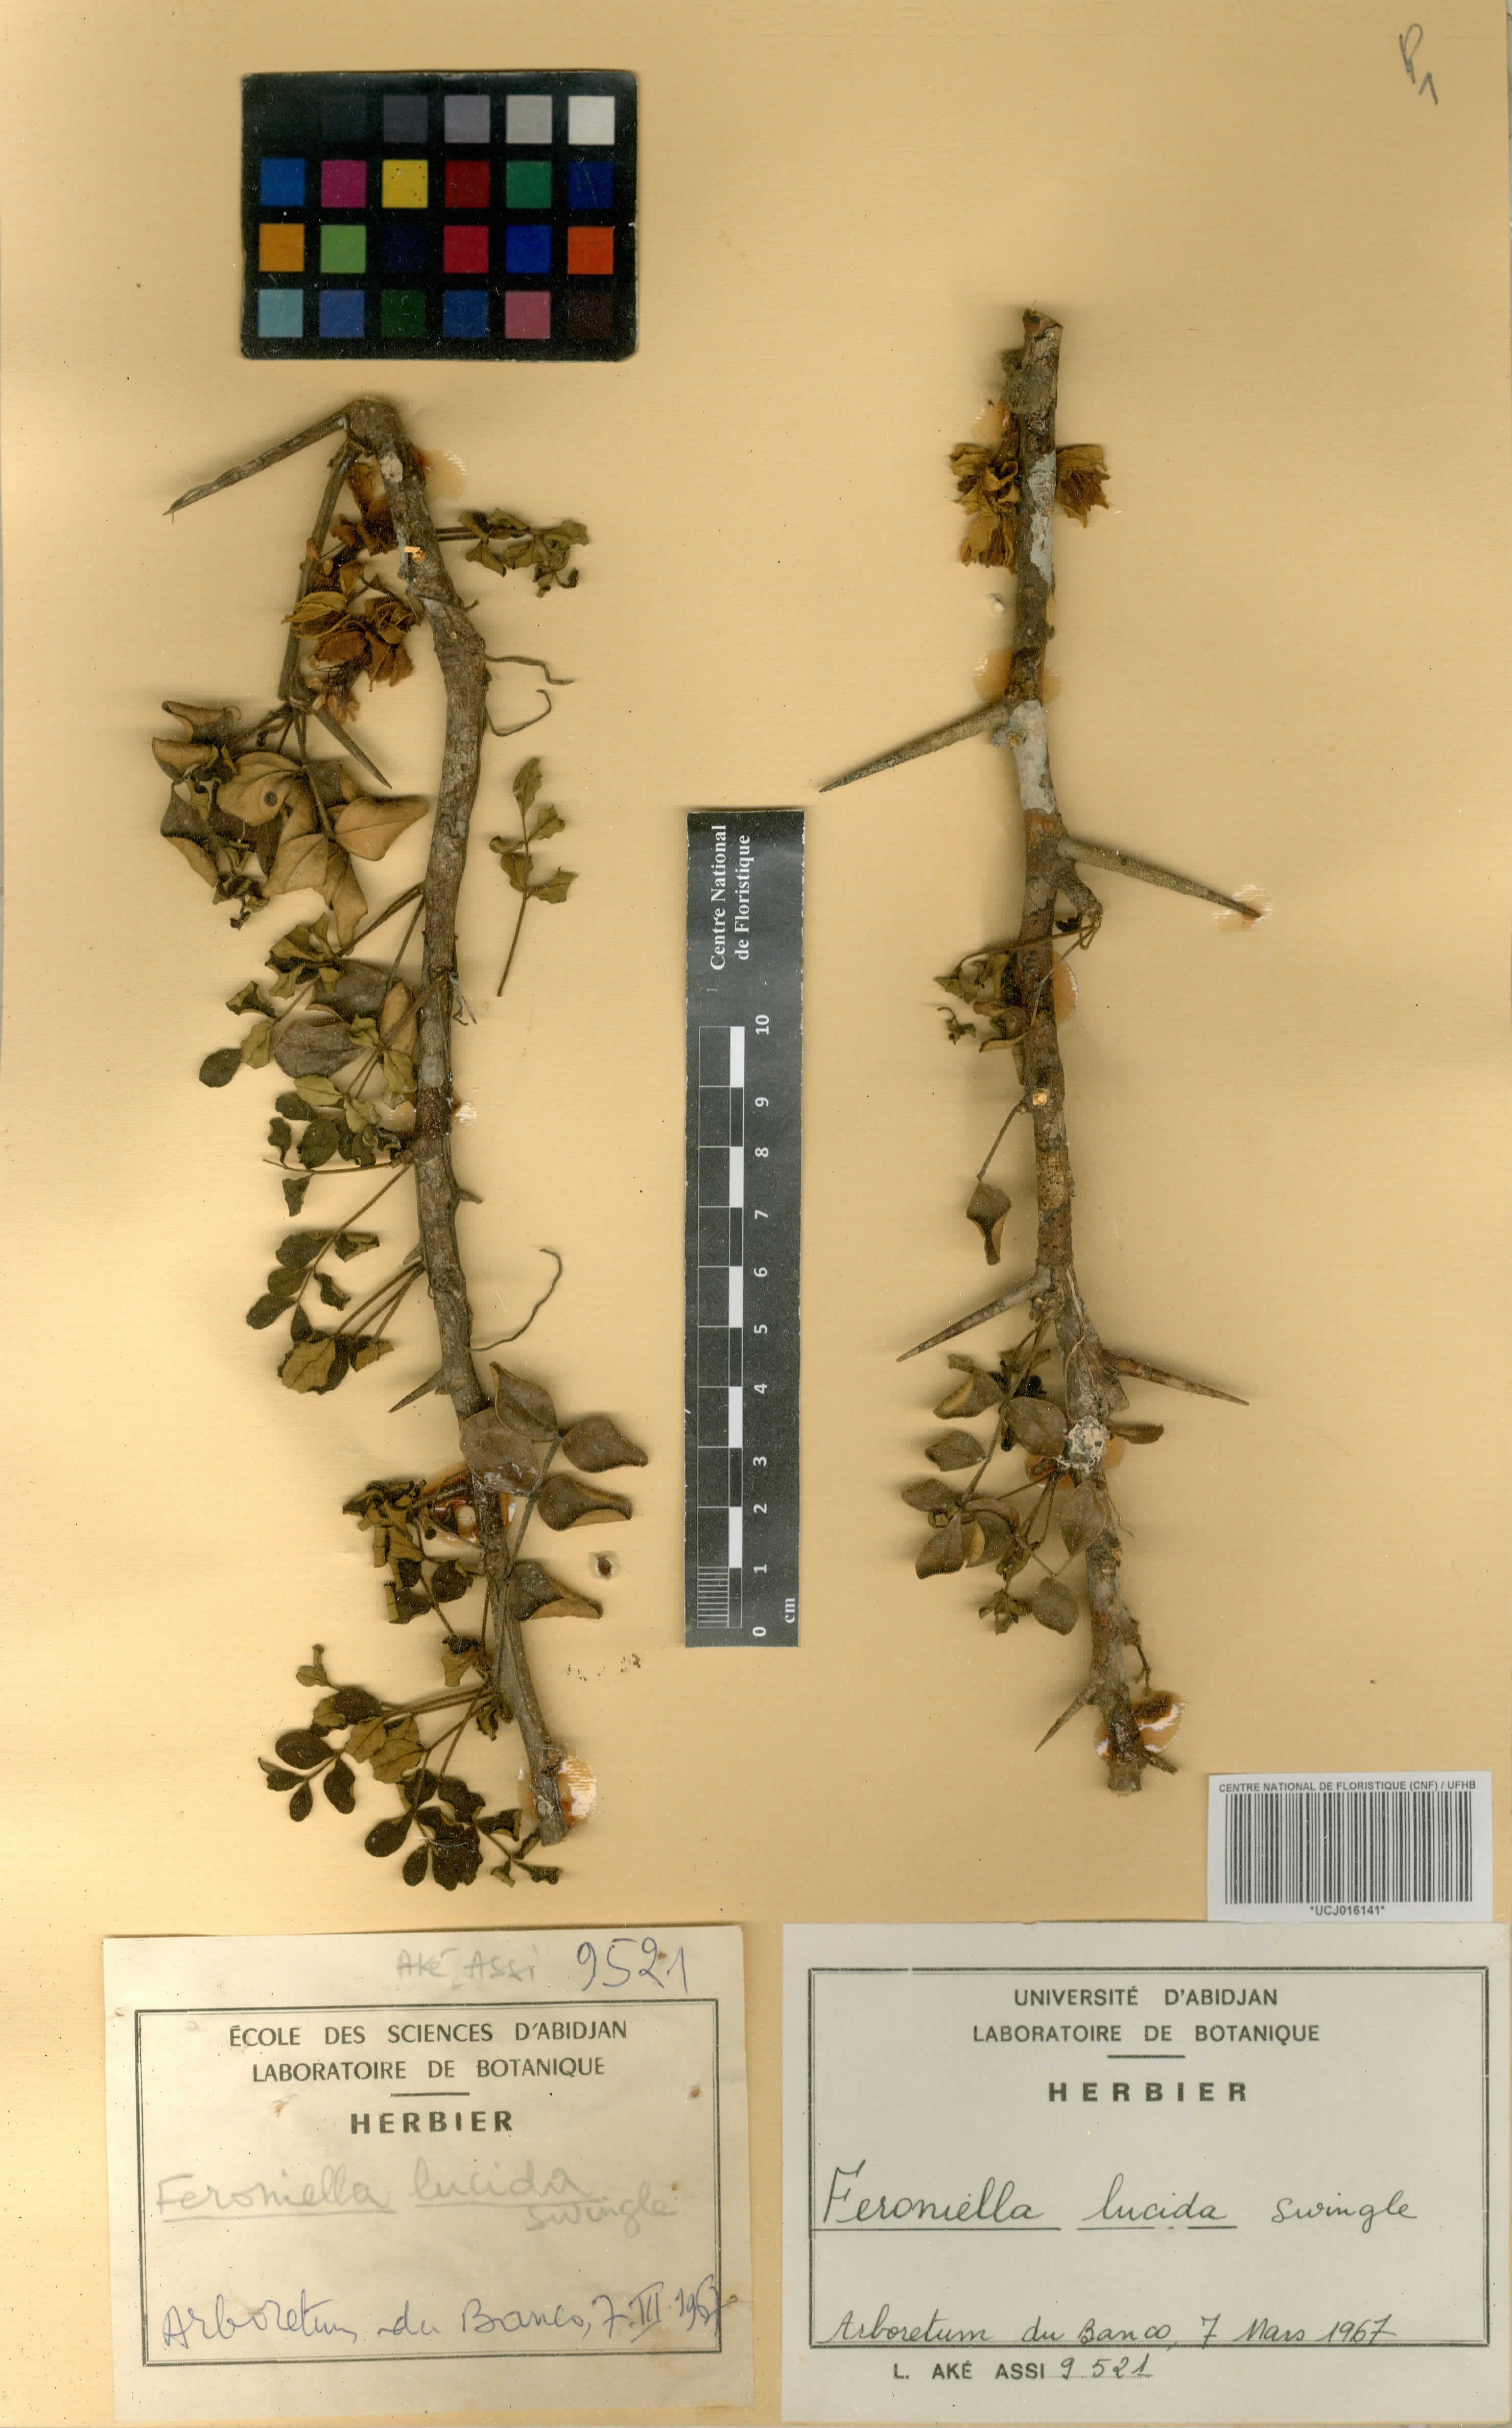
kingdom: Plantae
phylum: Tracheophyta
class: Magnoliopsida
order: Sapindales
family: Rutaceae
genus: Feroniella
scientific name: Feroniella lucida
